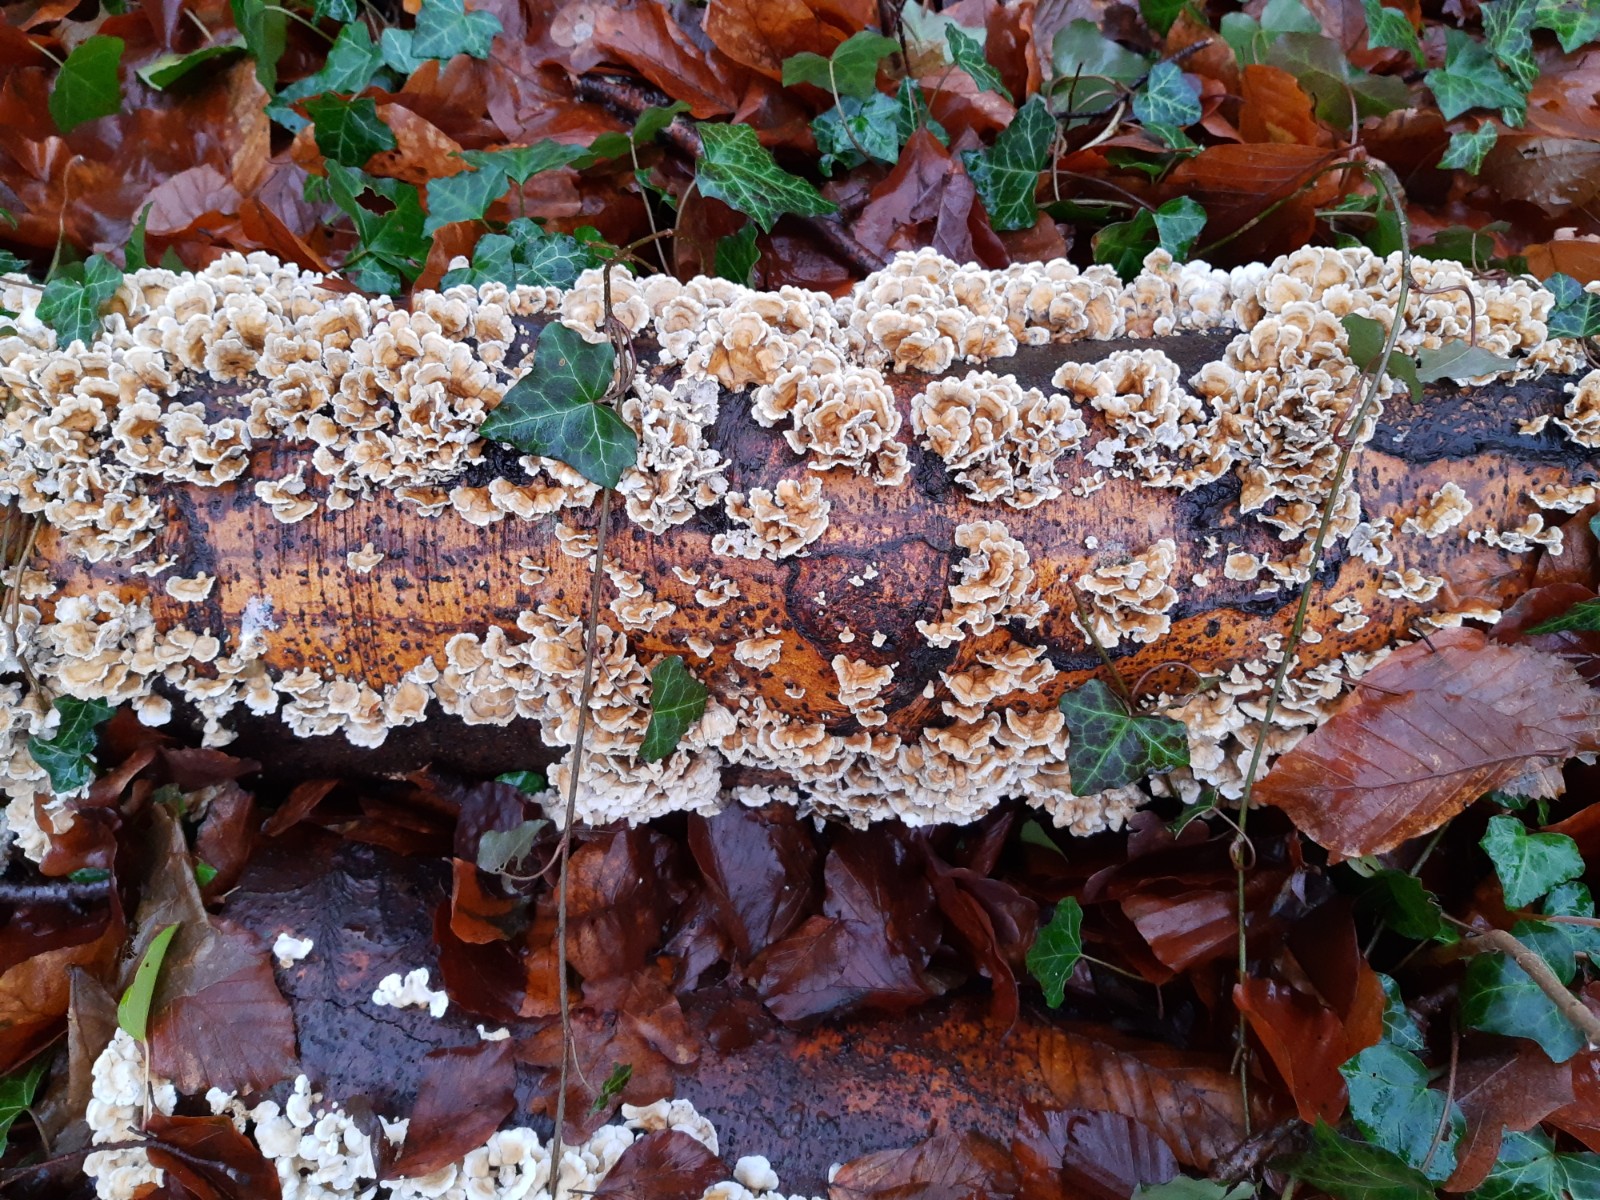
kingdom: Fungi
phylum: Basidiomycota
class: Agaricomycetes
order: Amylocorticiales
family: Amylocorticiaceae
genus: Plicaturopsis
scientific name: Plicaturopsis crispa
